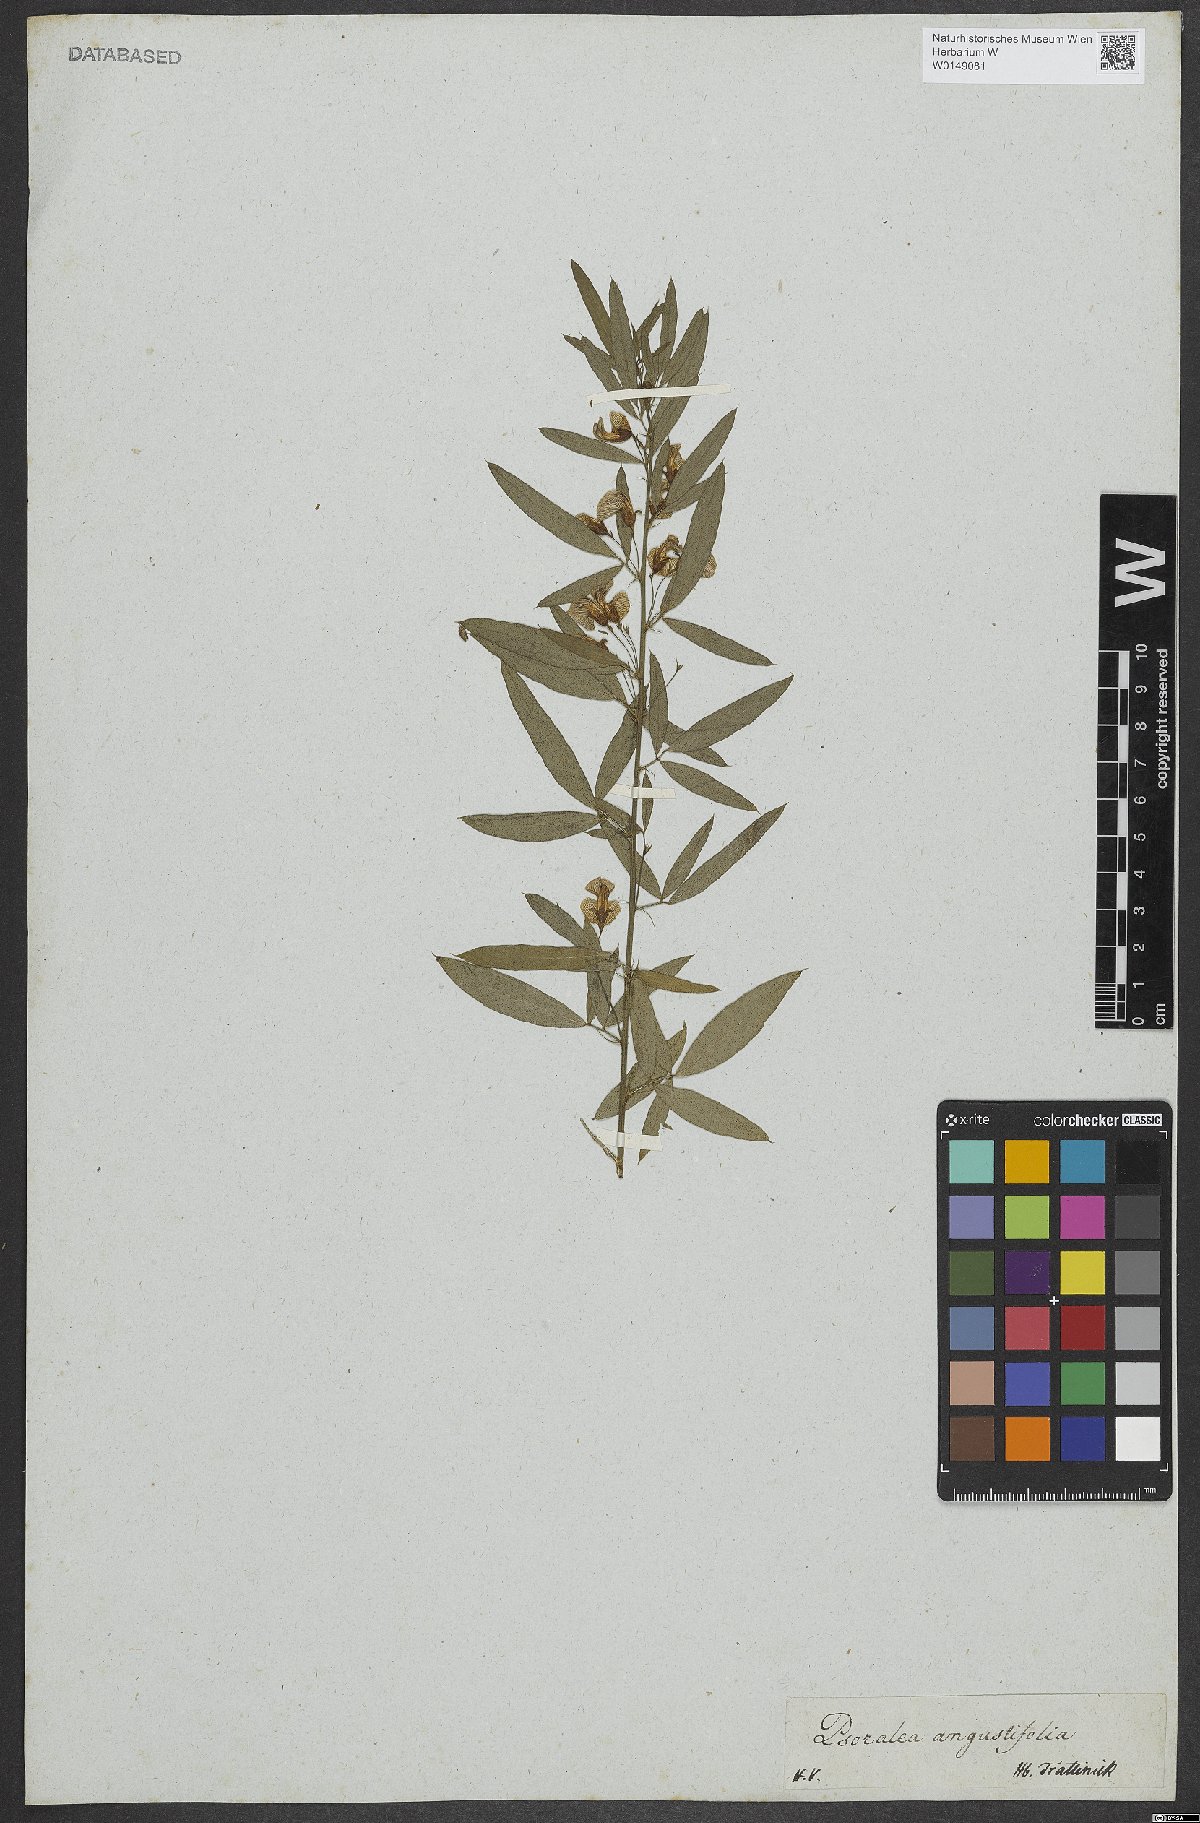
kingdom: Plantae
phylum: Tracheophyta
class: Magnoliopsida
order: Fabales
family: Fabaceae
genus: Psoralea
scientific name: Psoralea angustifolia
